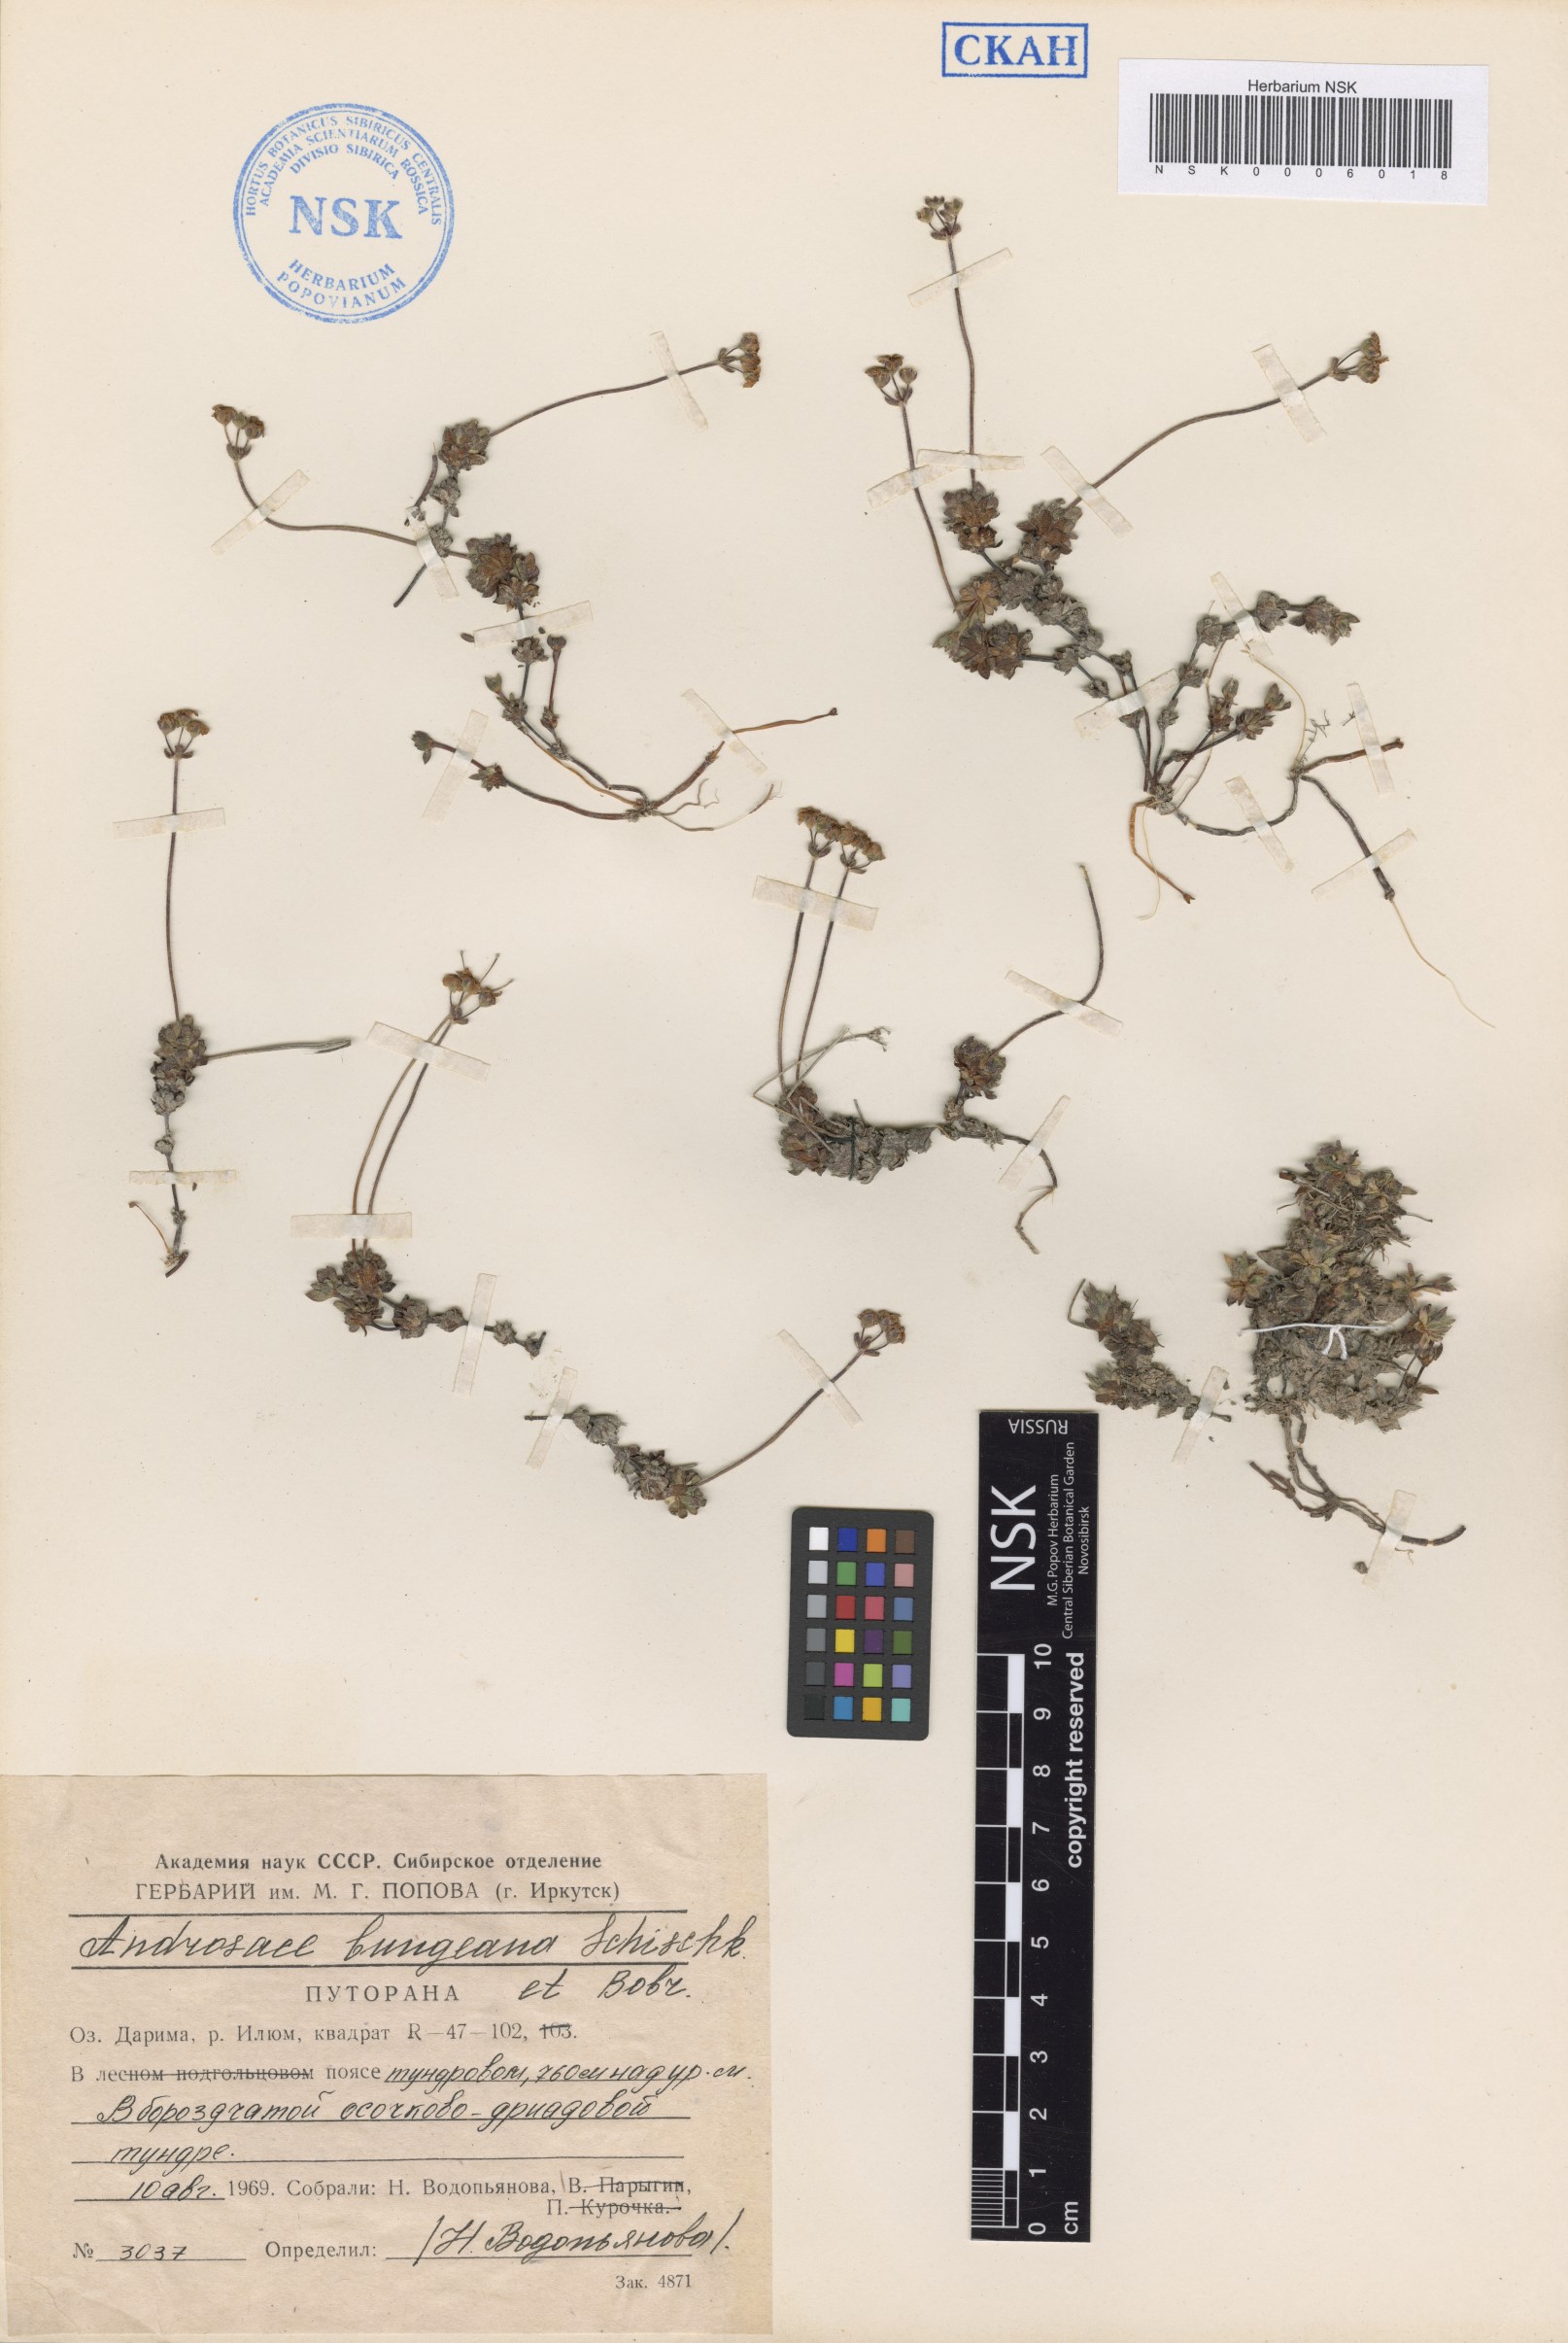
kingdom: Plantae
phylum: Tracheophyta
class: Magnoliopsida
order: Ericales
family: Primulaceae
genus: Androsace
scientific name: Androsace bungeana
